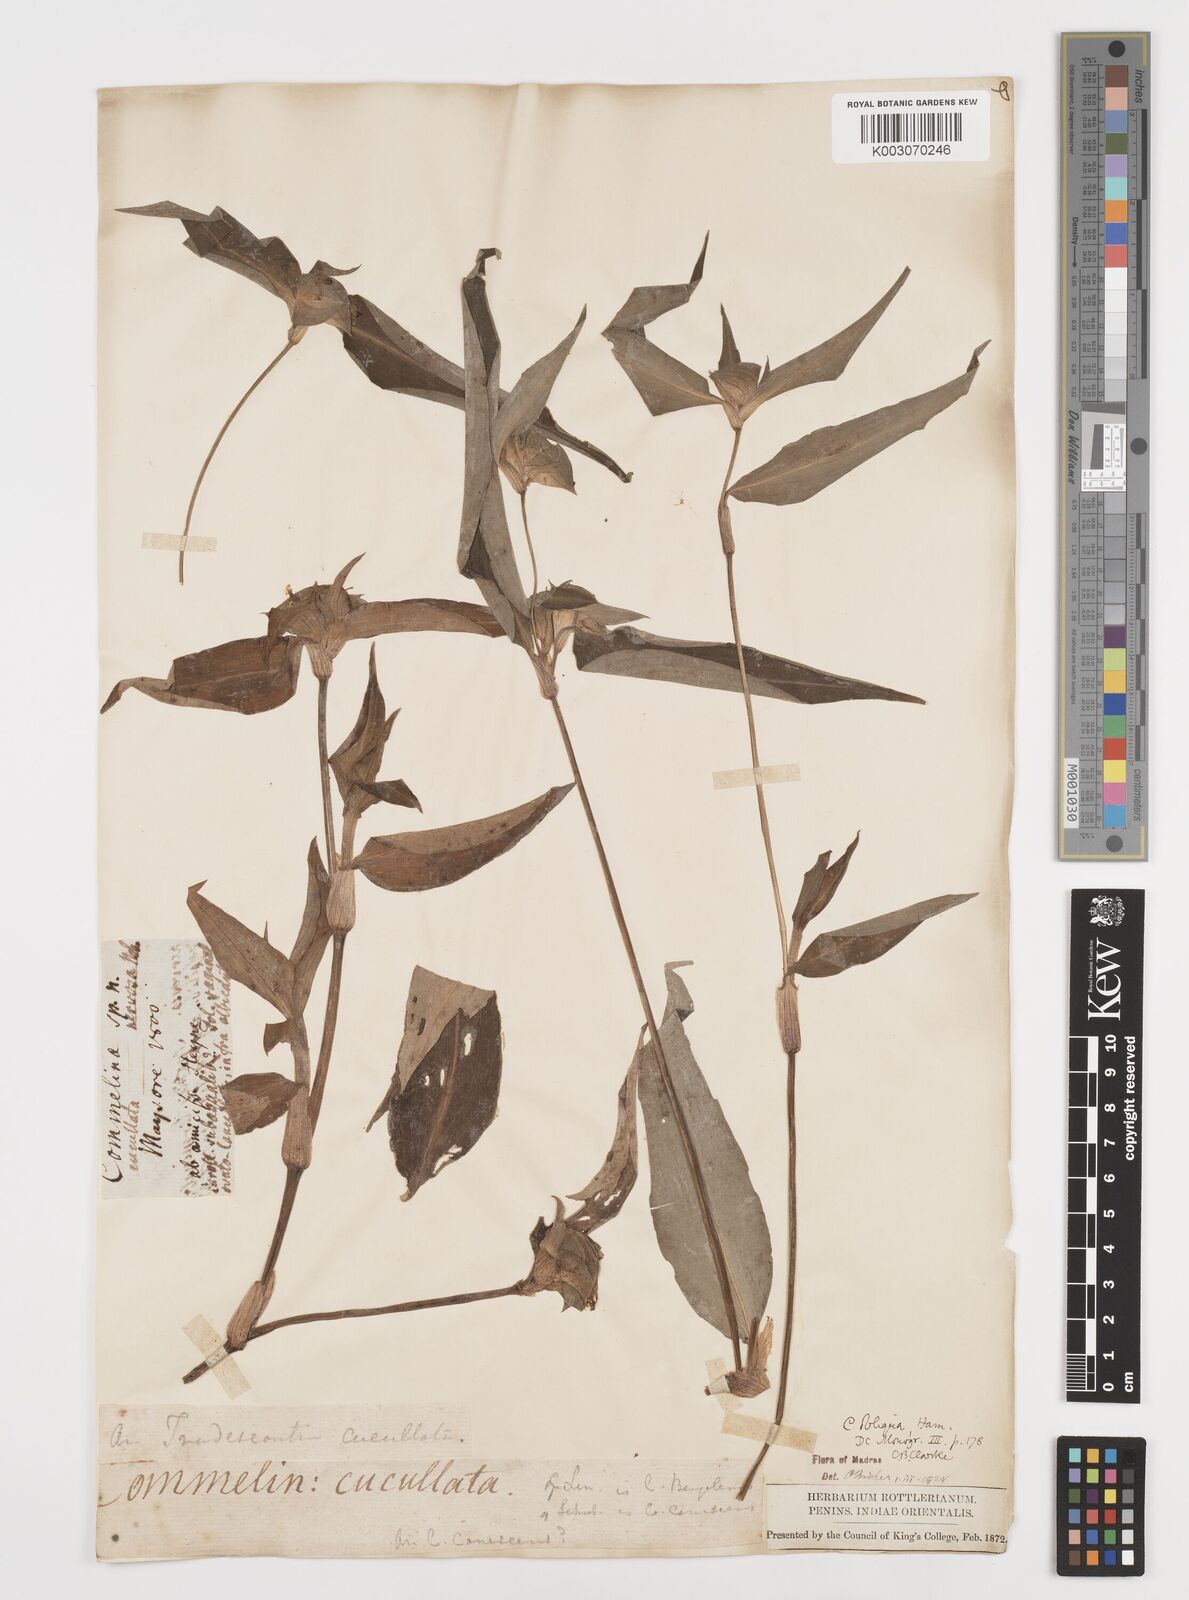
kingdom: Plantae
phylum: Tracheophyta
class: Liliopsida
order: Commelinales
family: Commelinaceae
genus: Commelina
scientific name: Commelina paludosa
